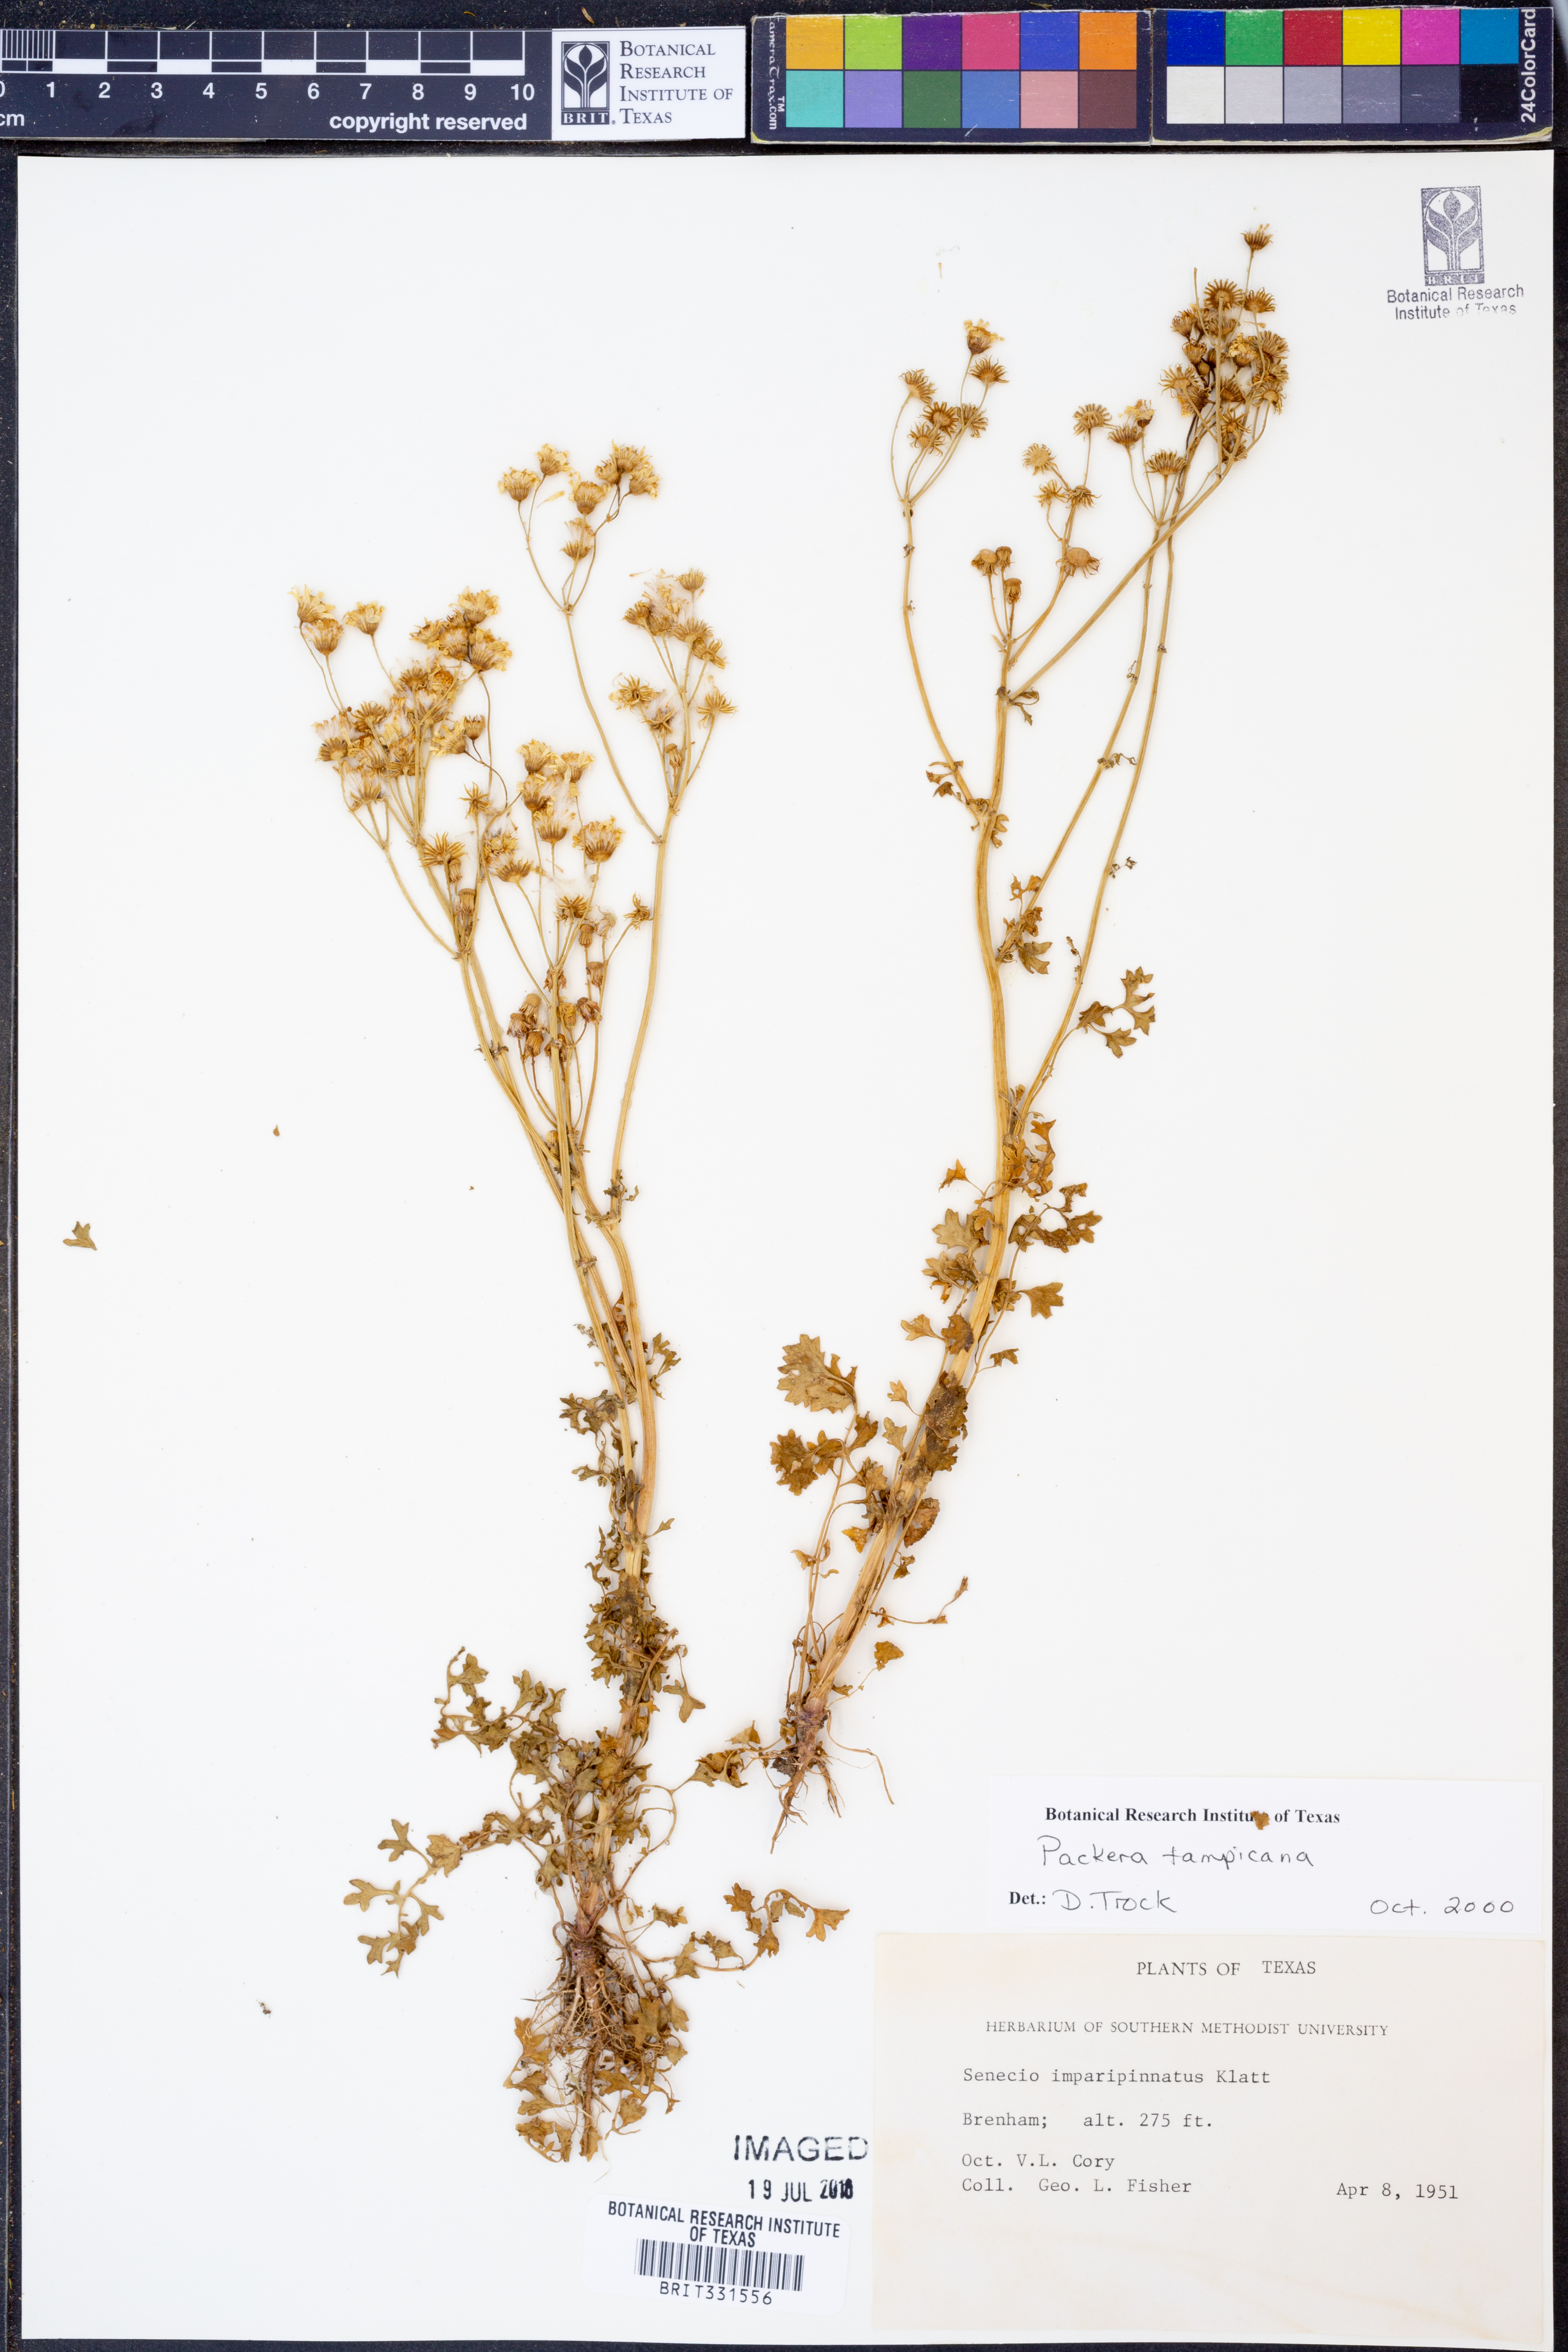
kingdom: Plantae
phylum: Tracheophyta
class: Magnoliopsida
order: Asterales
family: Asteraceae
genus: Packera
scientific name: Packera tampicana
